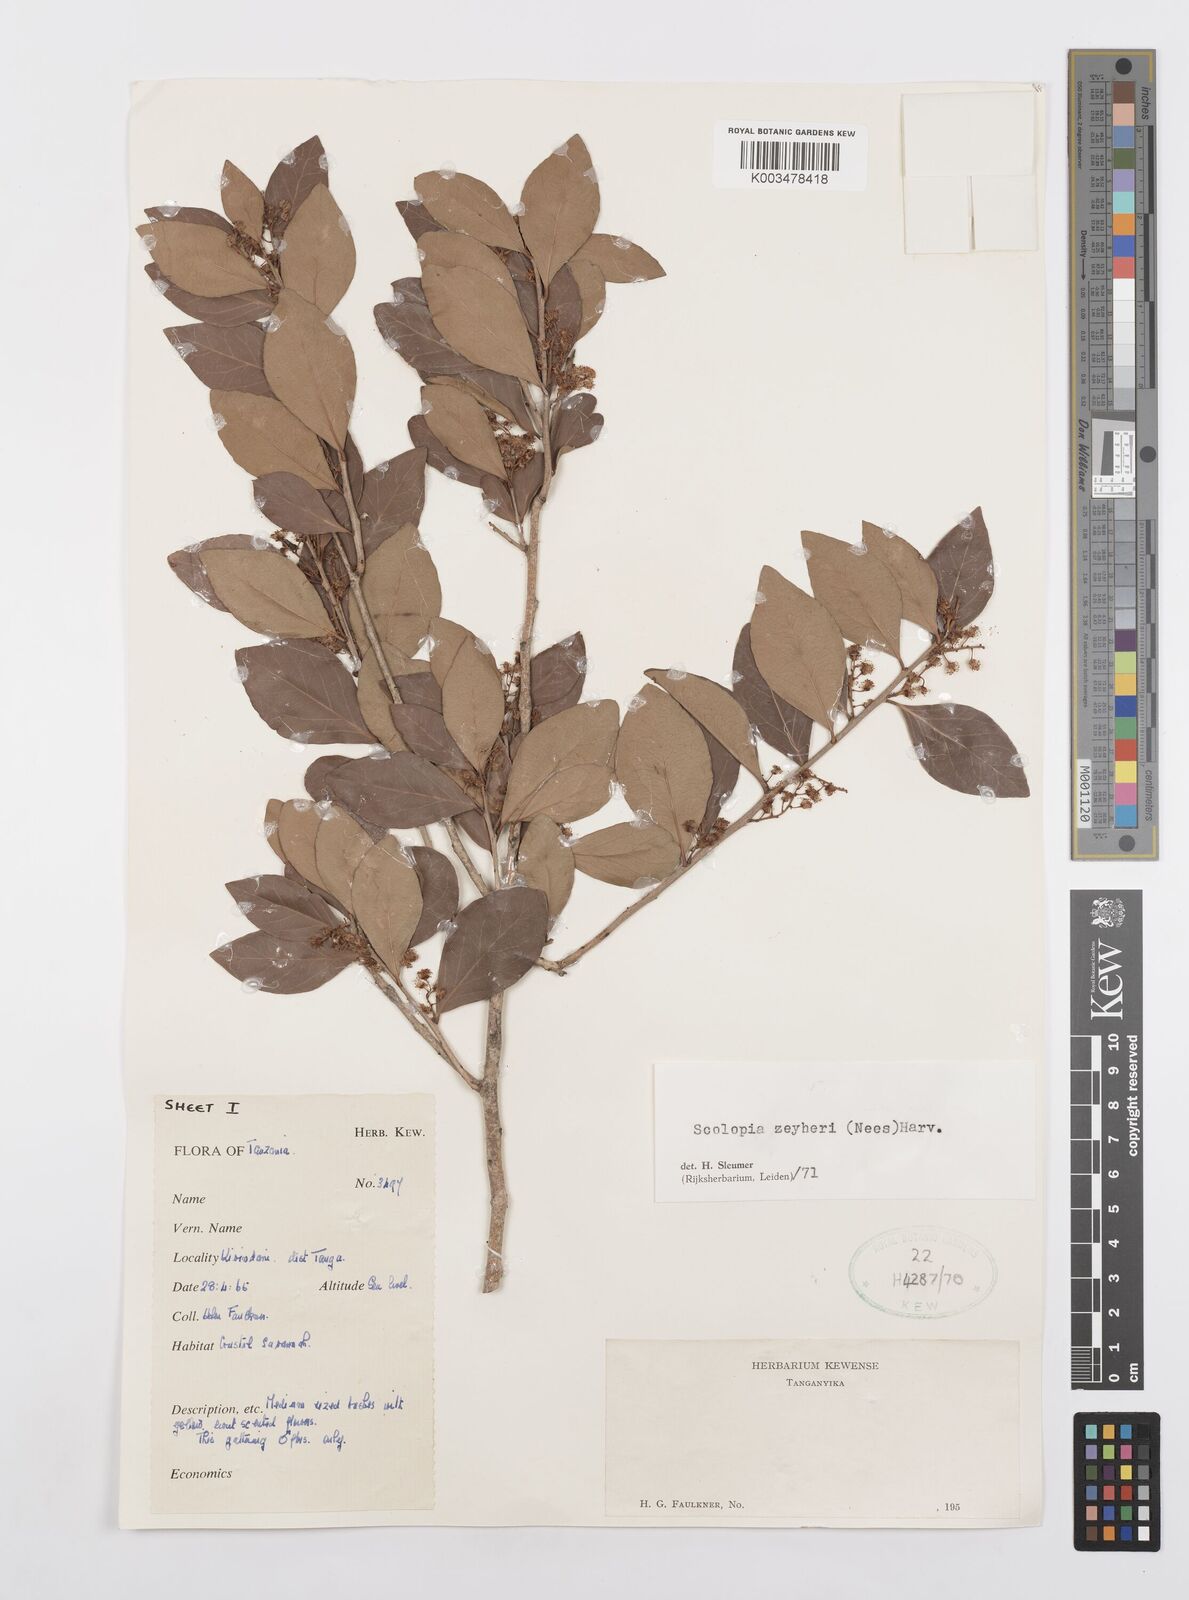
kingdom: Plantae
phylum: Tracheophyta
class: Magnoliopsida
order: Malpighiales
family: Salicaceae
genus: Scolopia
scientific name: Scolopia zeyheri
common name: Thorn pear
